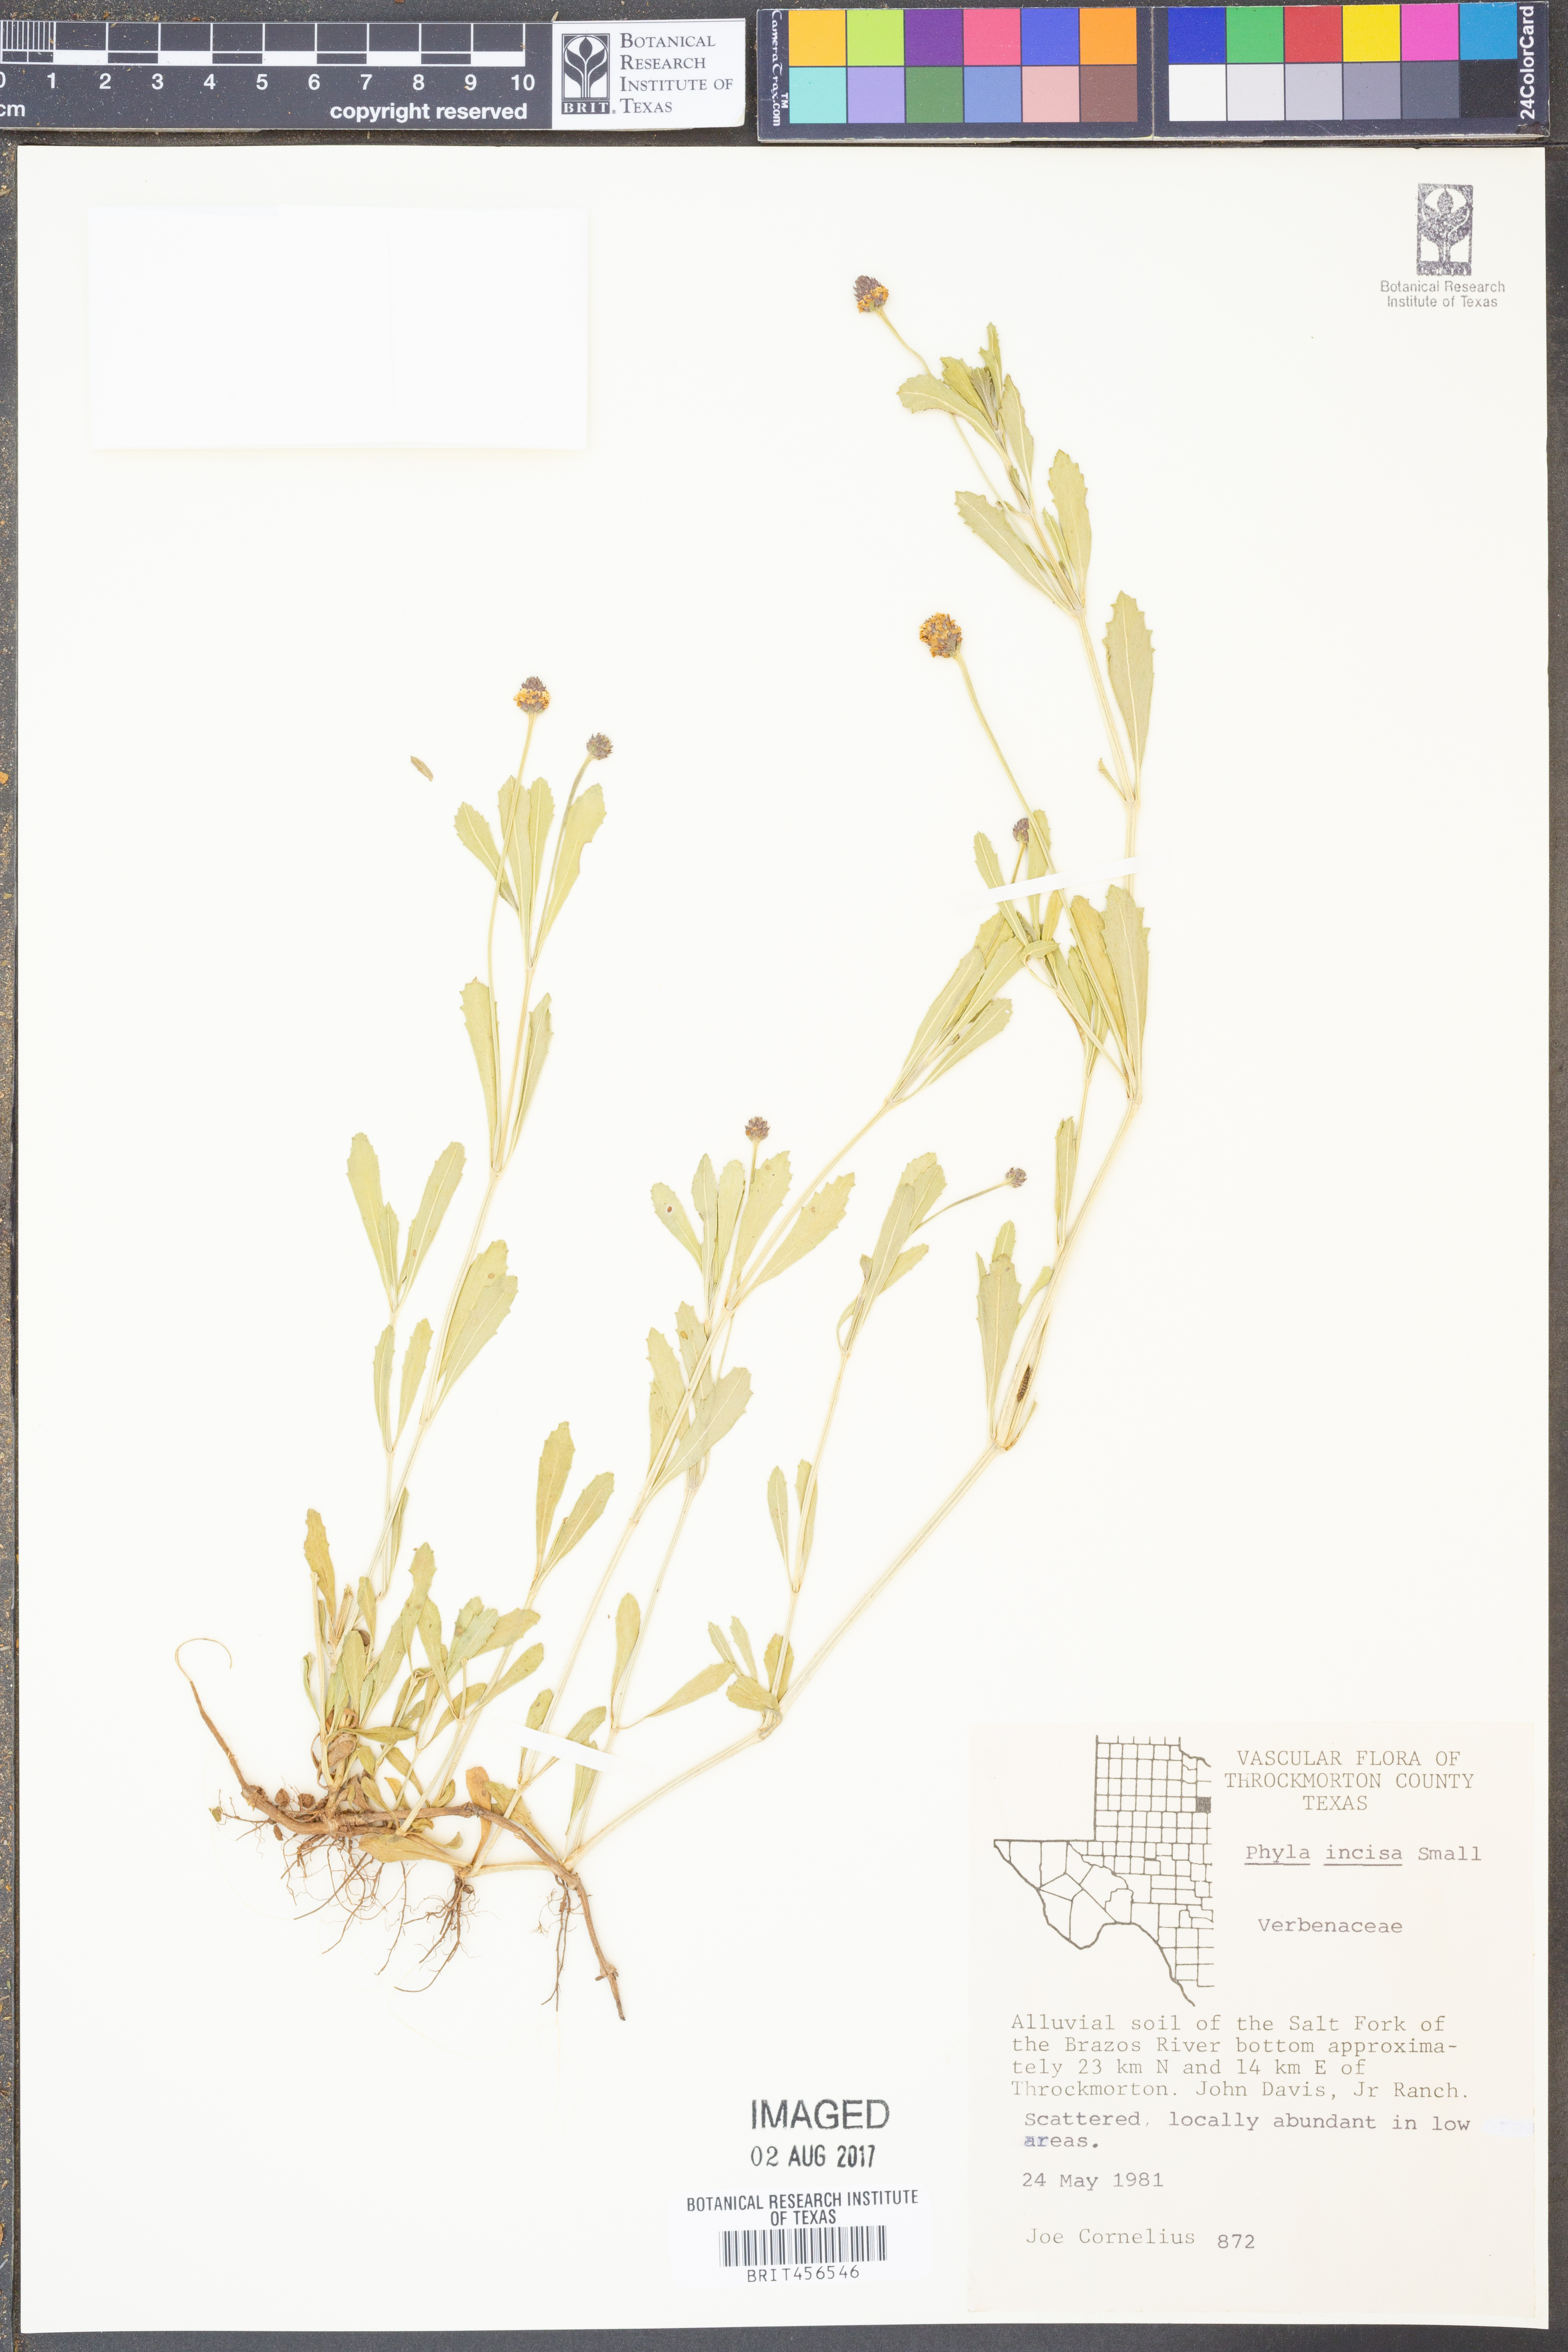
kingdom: Plantae
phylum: Tracheophyta
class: Magnoliopsida
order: Lamiales
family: Verbenaceae
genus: Phyla
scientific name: Phyla nodiflora
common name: Frogfruit
